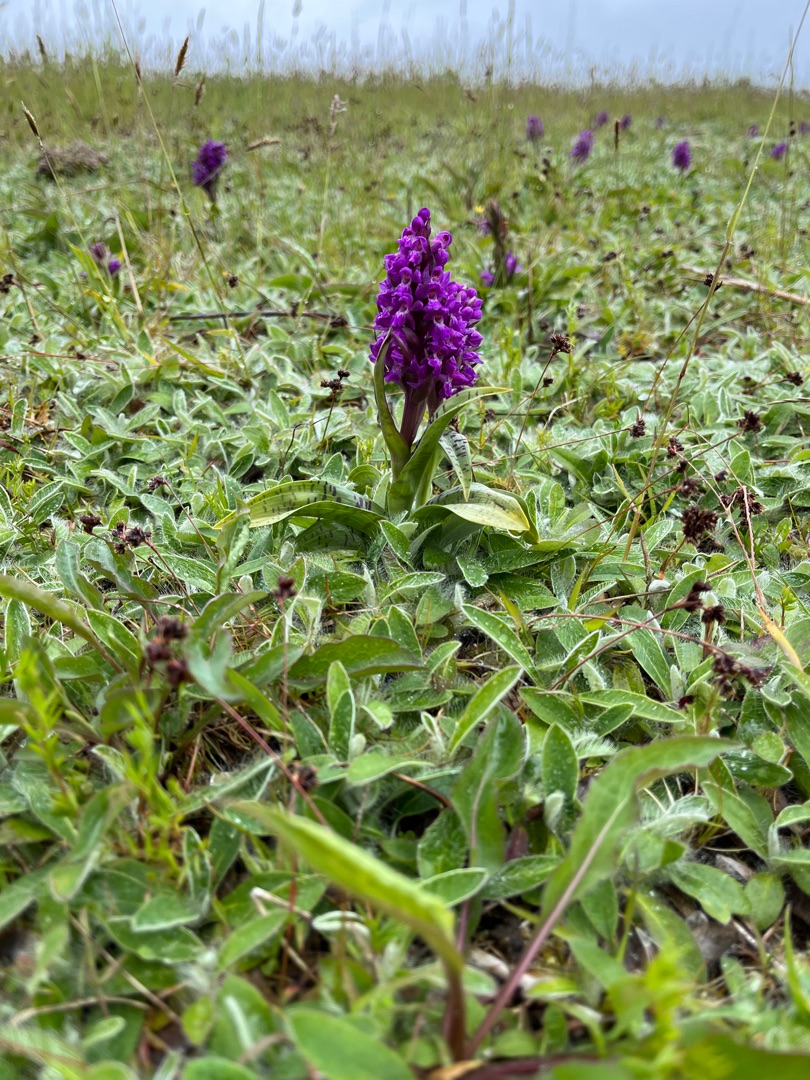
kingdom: Plantae
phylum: Tracheophyta
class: Liliopsida
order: Asparagales
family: Orchidaceae
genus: Dactylorhiza
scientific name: Dactylorhiza majalis
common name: Maj-gøgeurt
